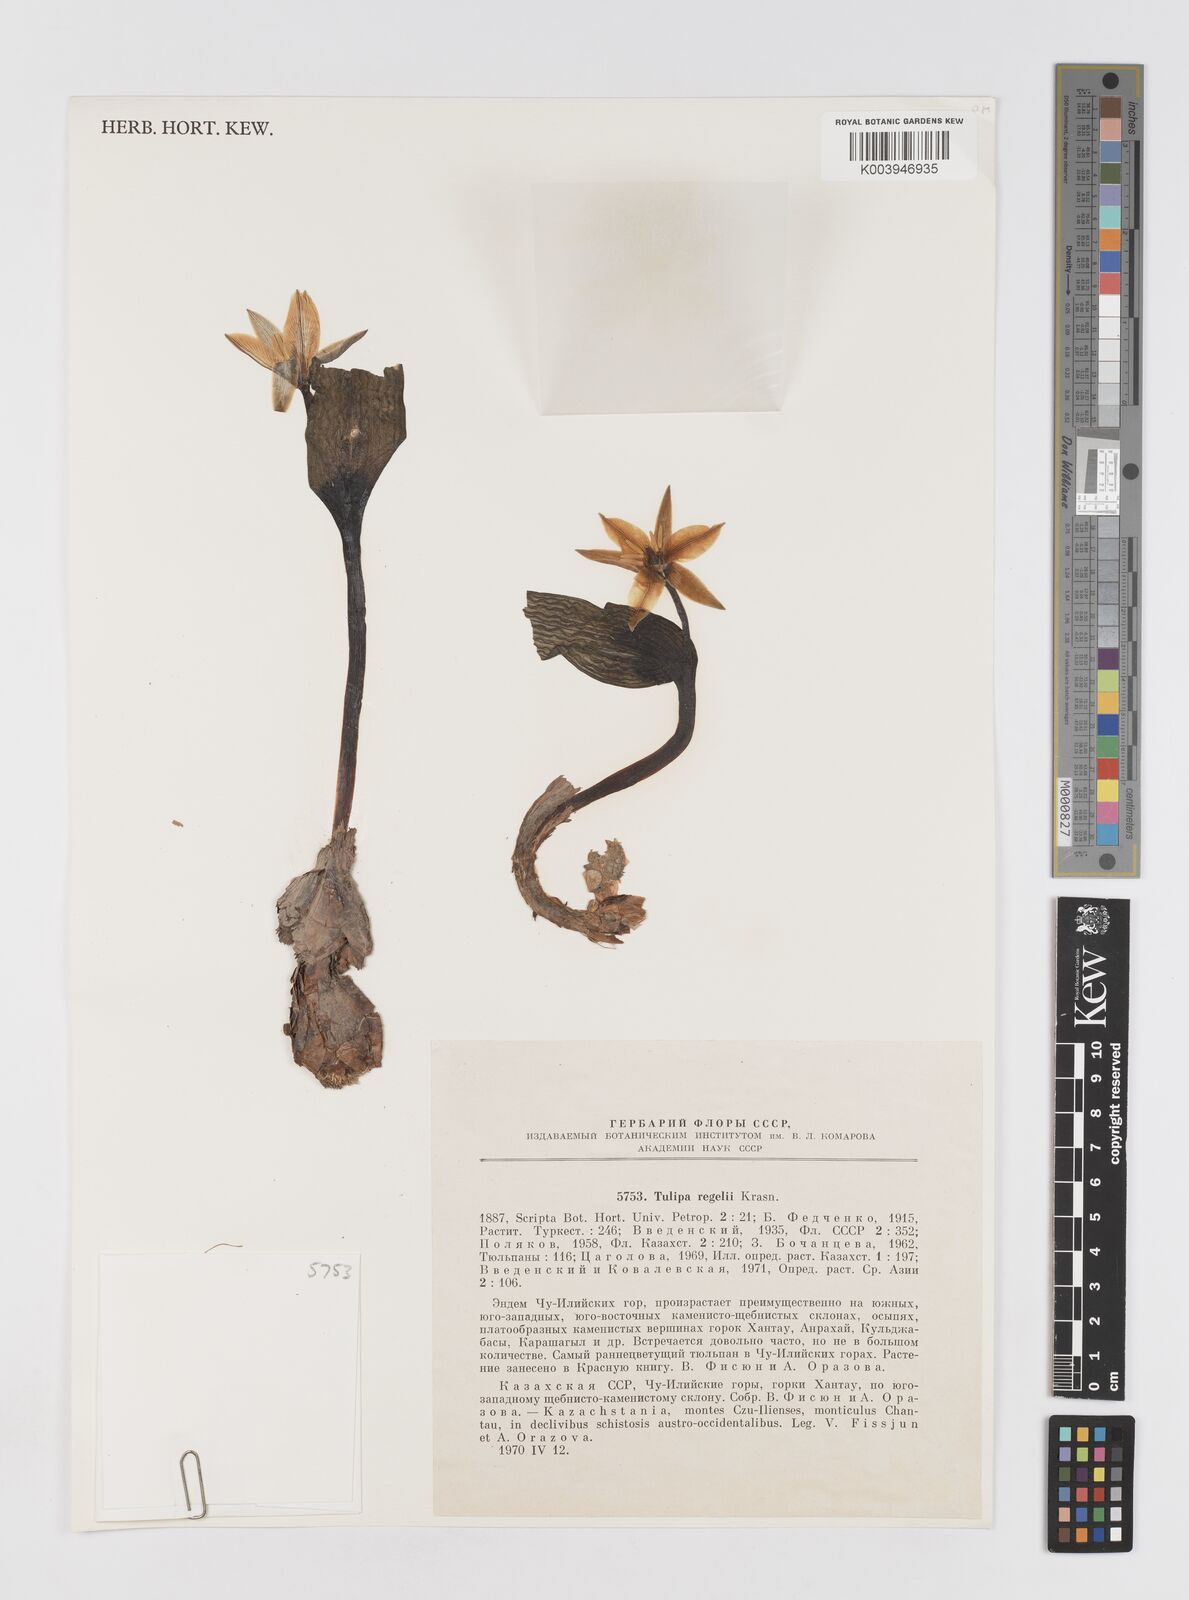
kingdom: Plantae
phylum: Tracheophyta
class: Liliopsida
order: Liliales
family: Liliaceae
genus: Tulipa
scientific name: Tulipa regelii
